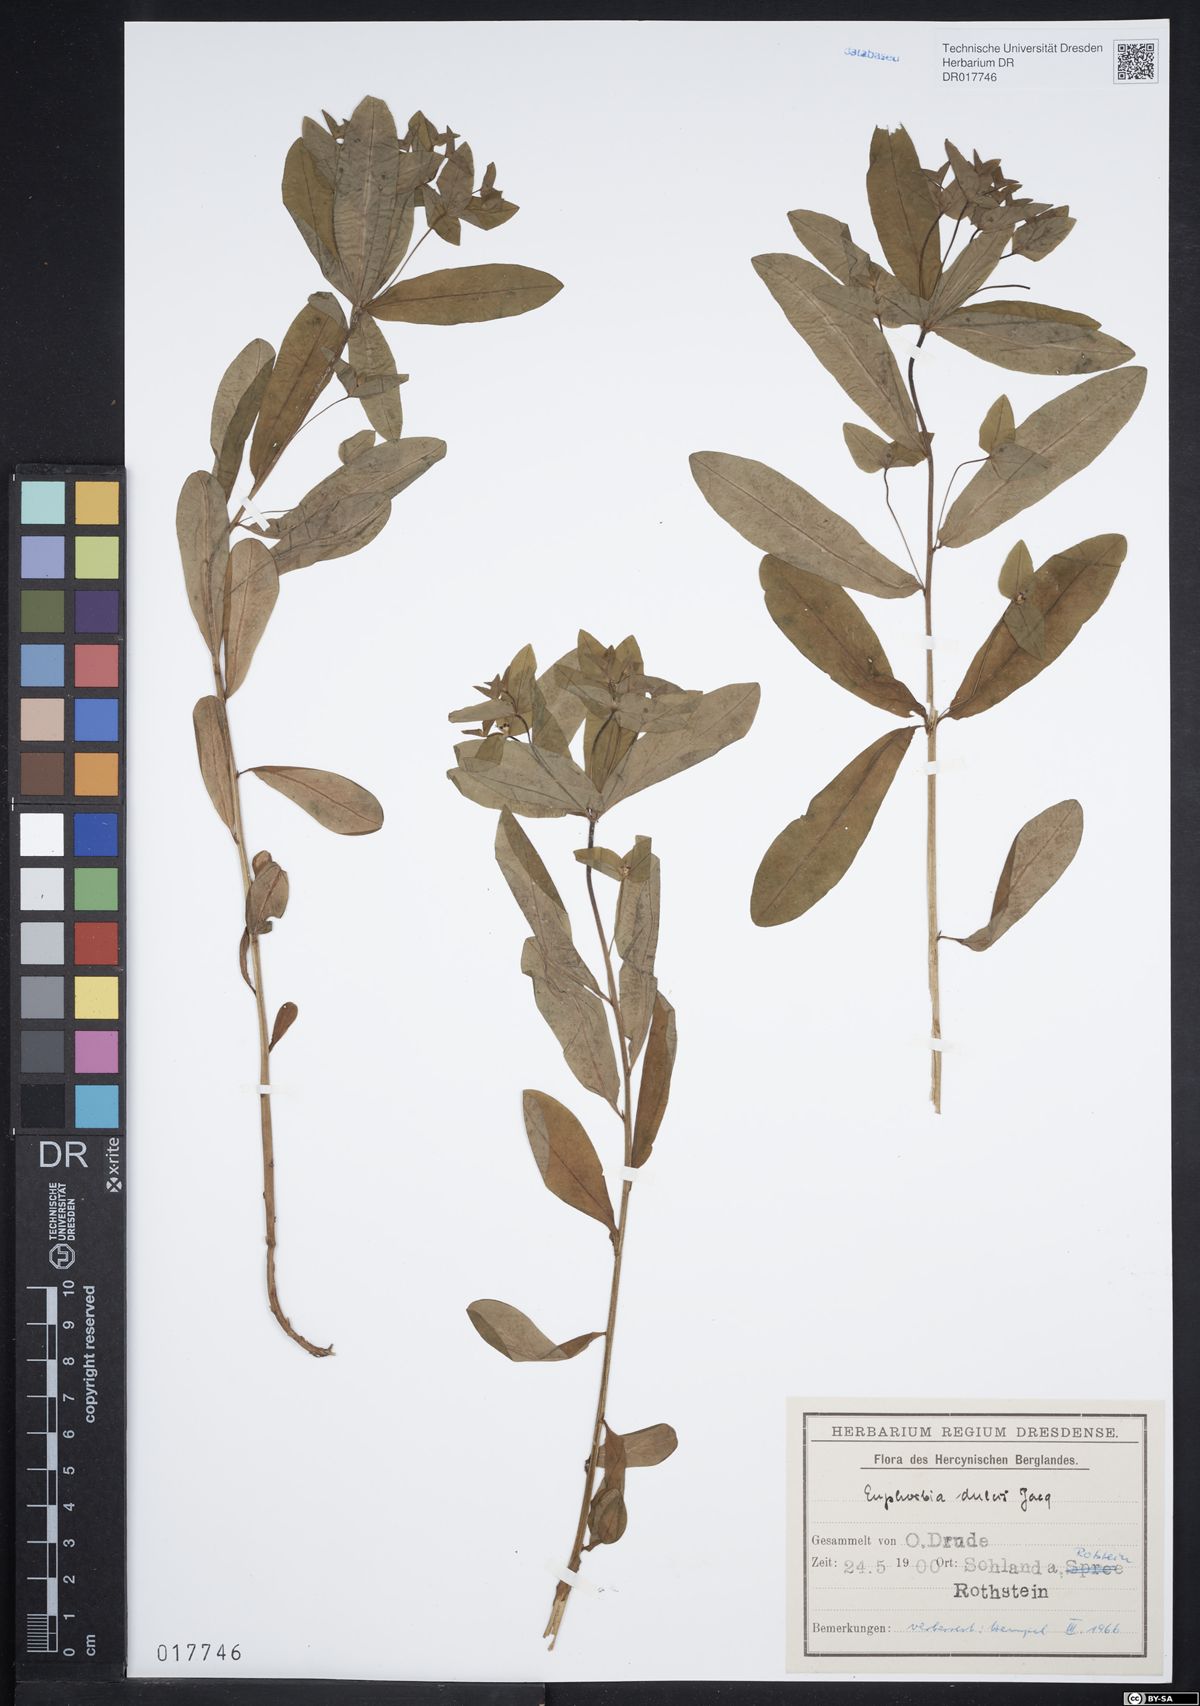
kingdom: Plantae
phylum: Tracheophyta
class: Magnoliopsida
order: Malpighiales
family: Euphorbiaceae
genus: Euphorbia
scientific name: Euphorbia dulcis
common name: Sweet spurge
